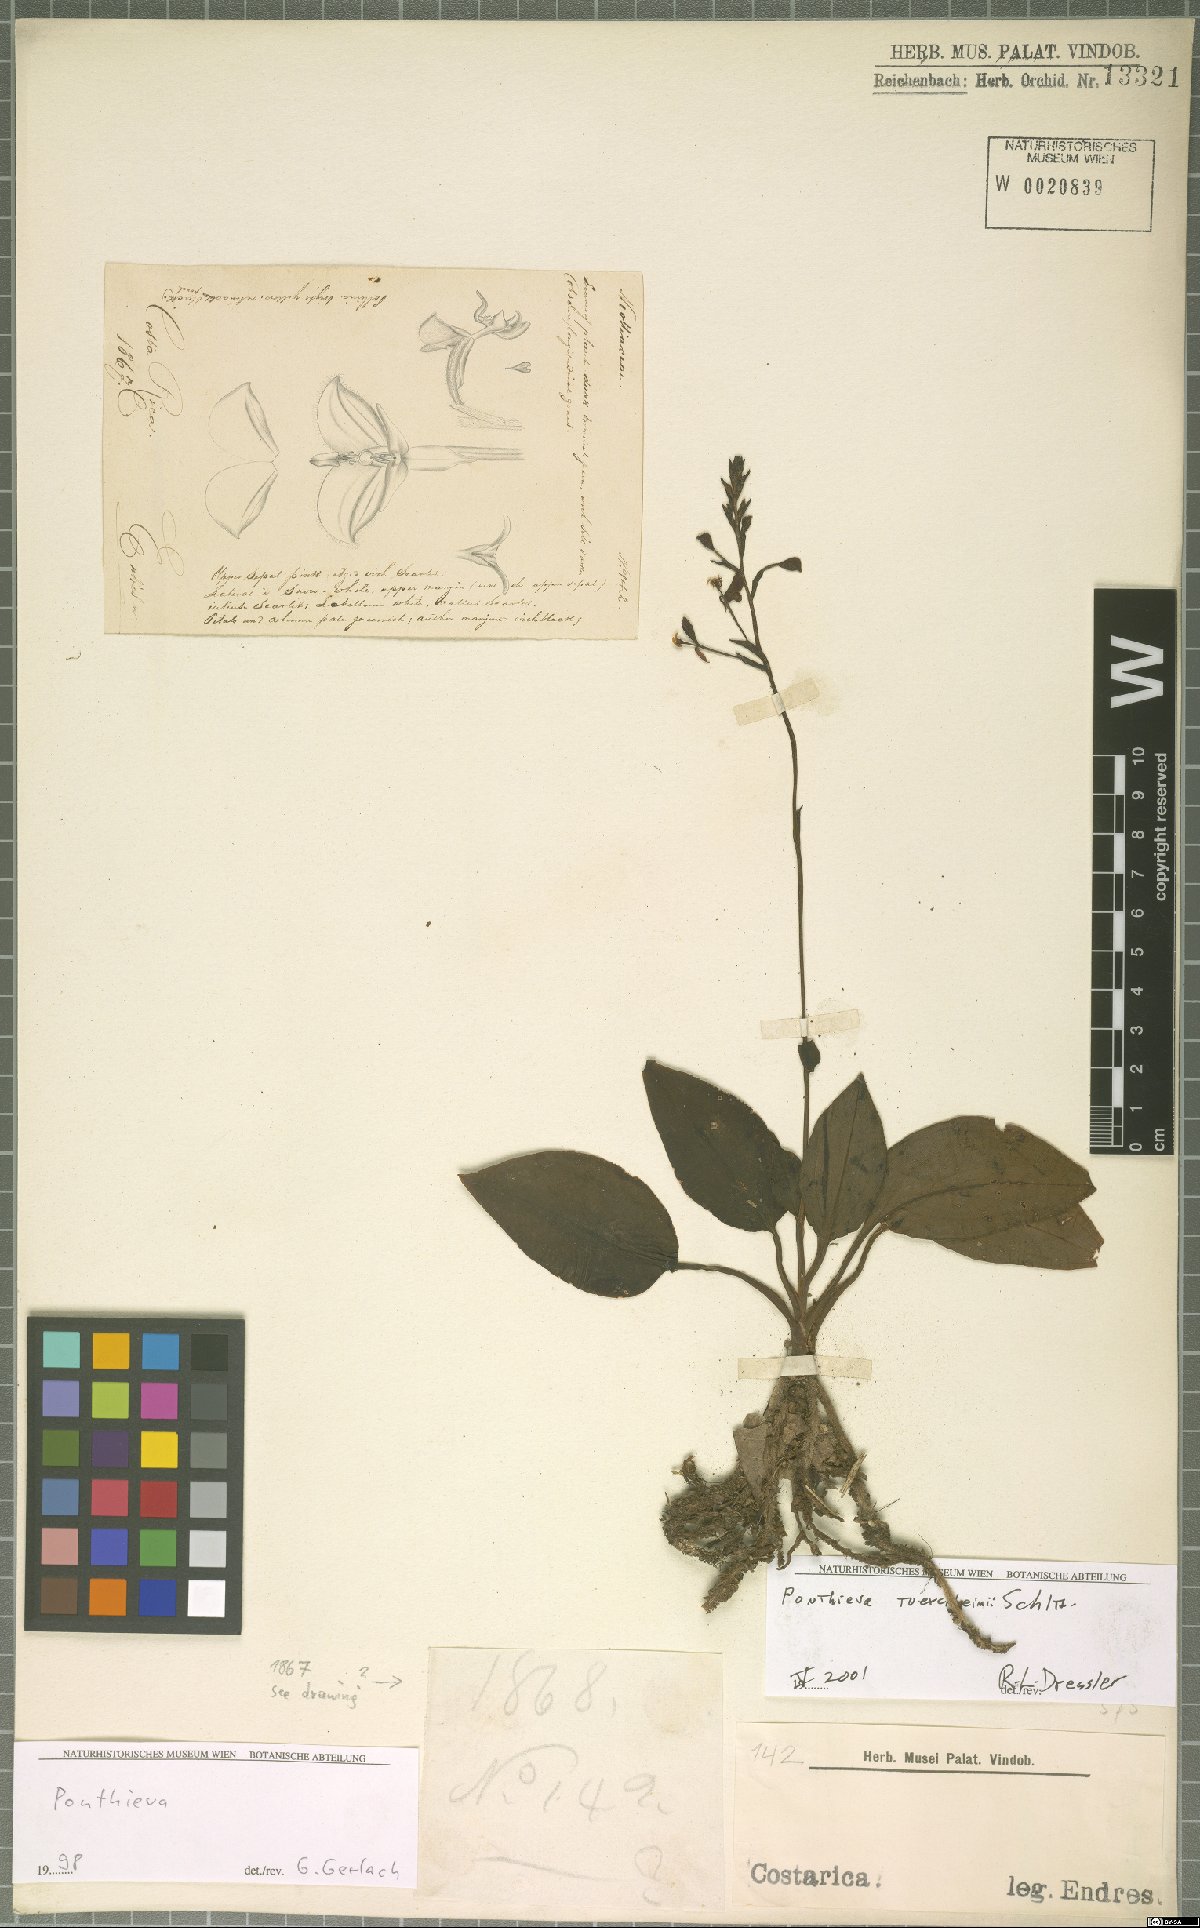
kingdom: Plantae
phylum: Tracheophyta
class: Liliopsida
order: Asparagales
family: Orchidaceae
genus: Ponthieva
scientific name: Ponthieva tuerckheimii
